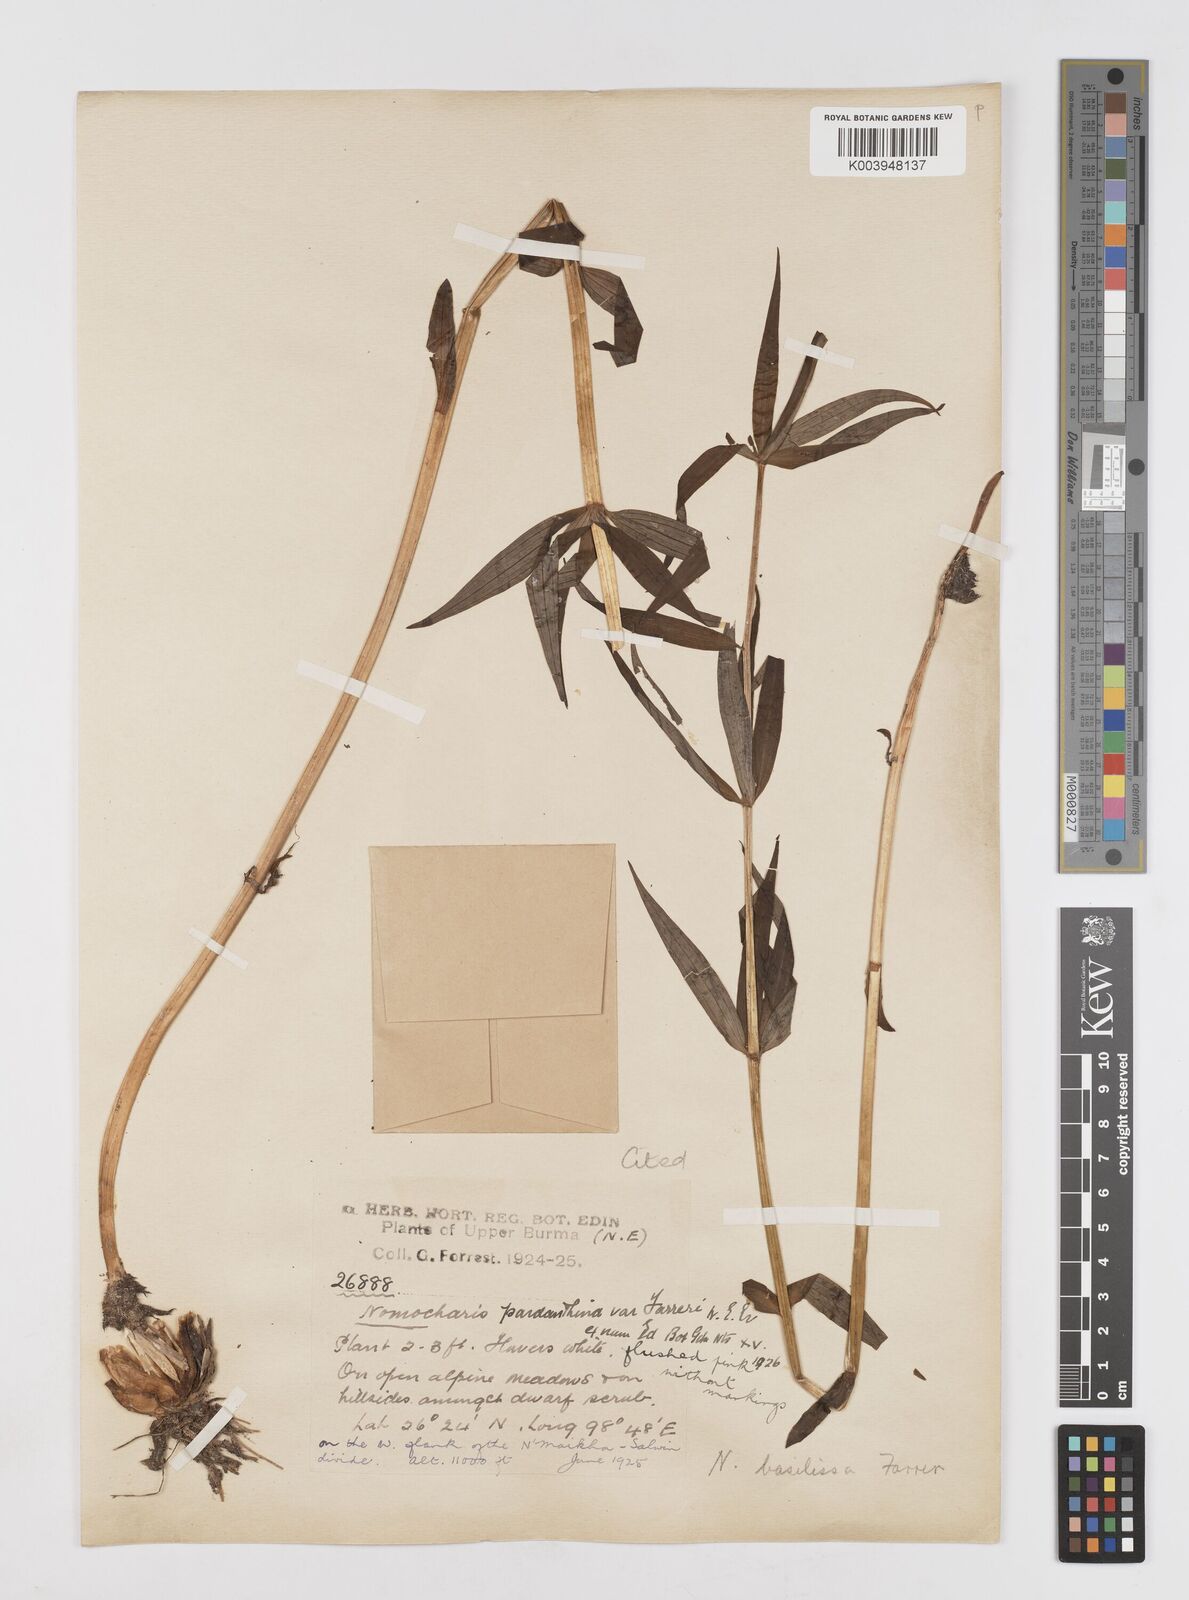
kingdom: Plantae
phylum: Tracheophyta
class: Liliopsida
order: Liliales
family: Liliaceae
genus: Lilium
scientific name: Lilium basilissum
